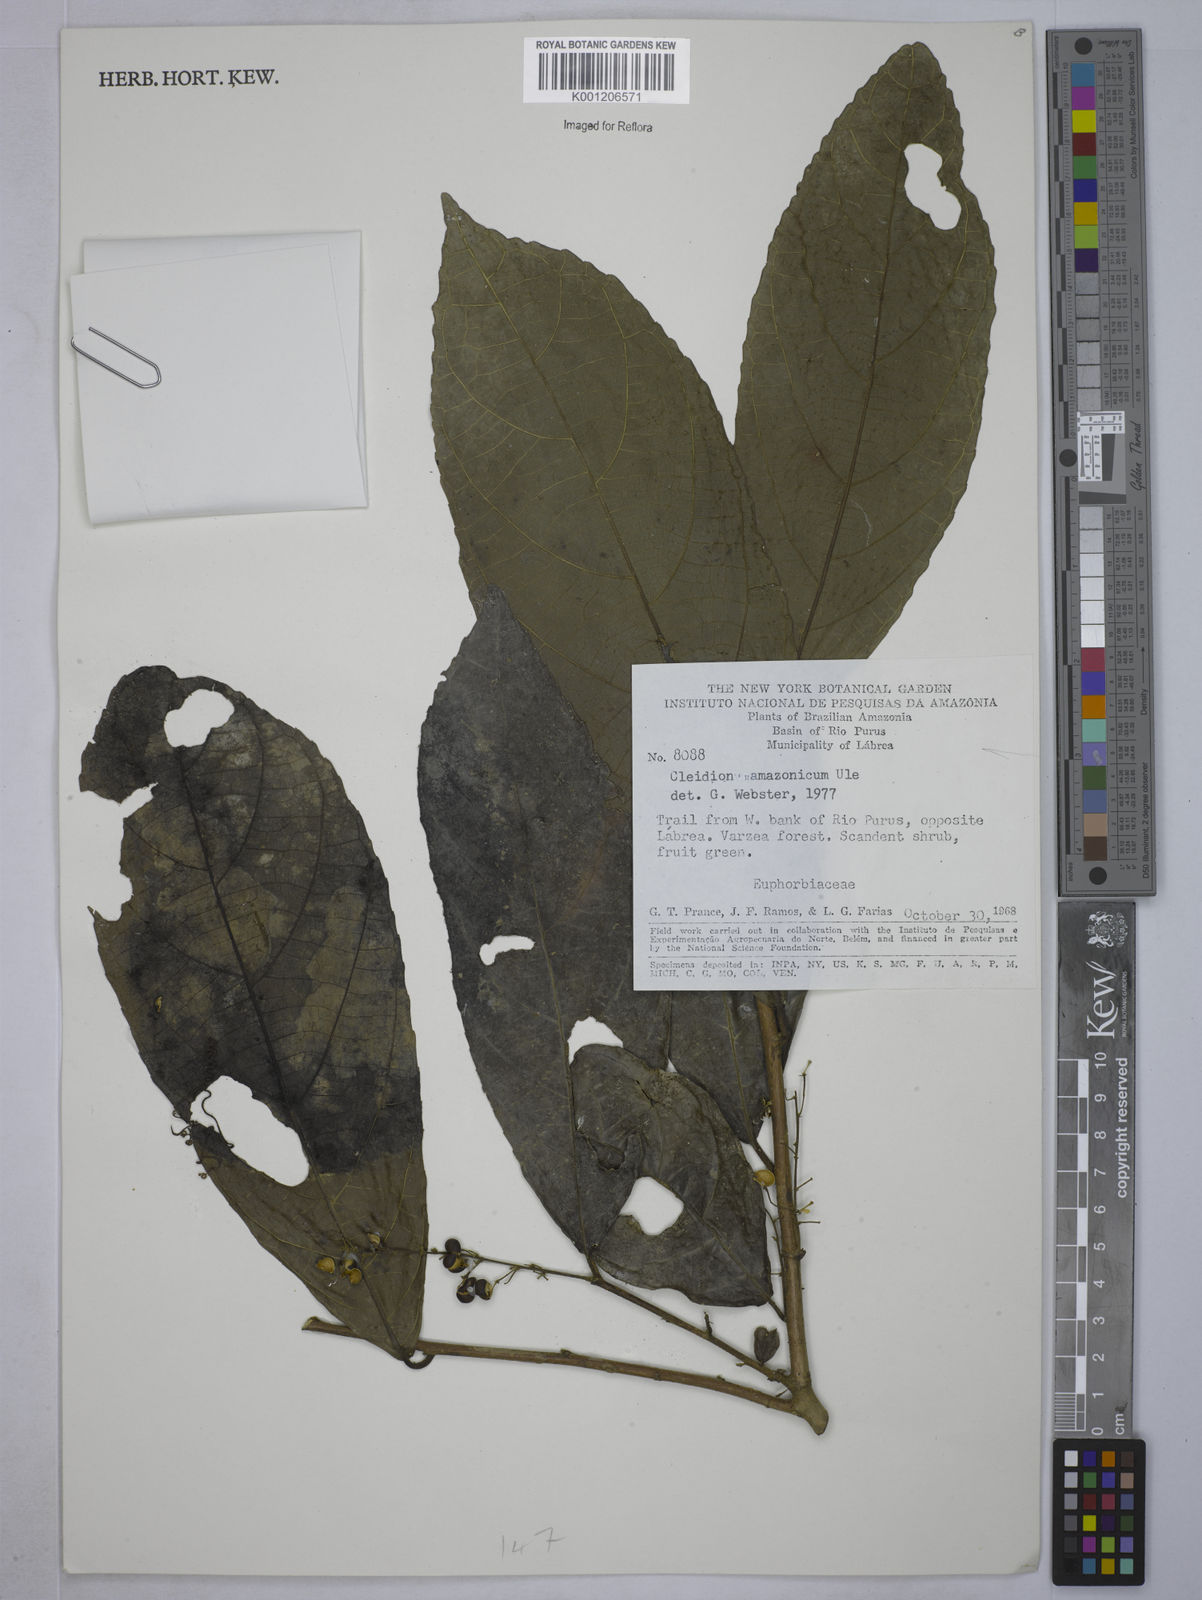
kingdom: Plantae
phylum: Tracheophyta
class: Magnoliopsida
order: Malpighiales
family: Euphorbiaceae
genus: Cleidion
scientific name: Cleidion amazonicum
